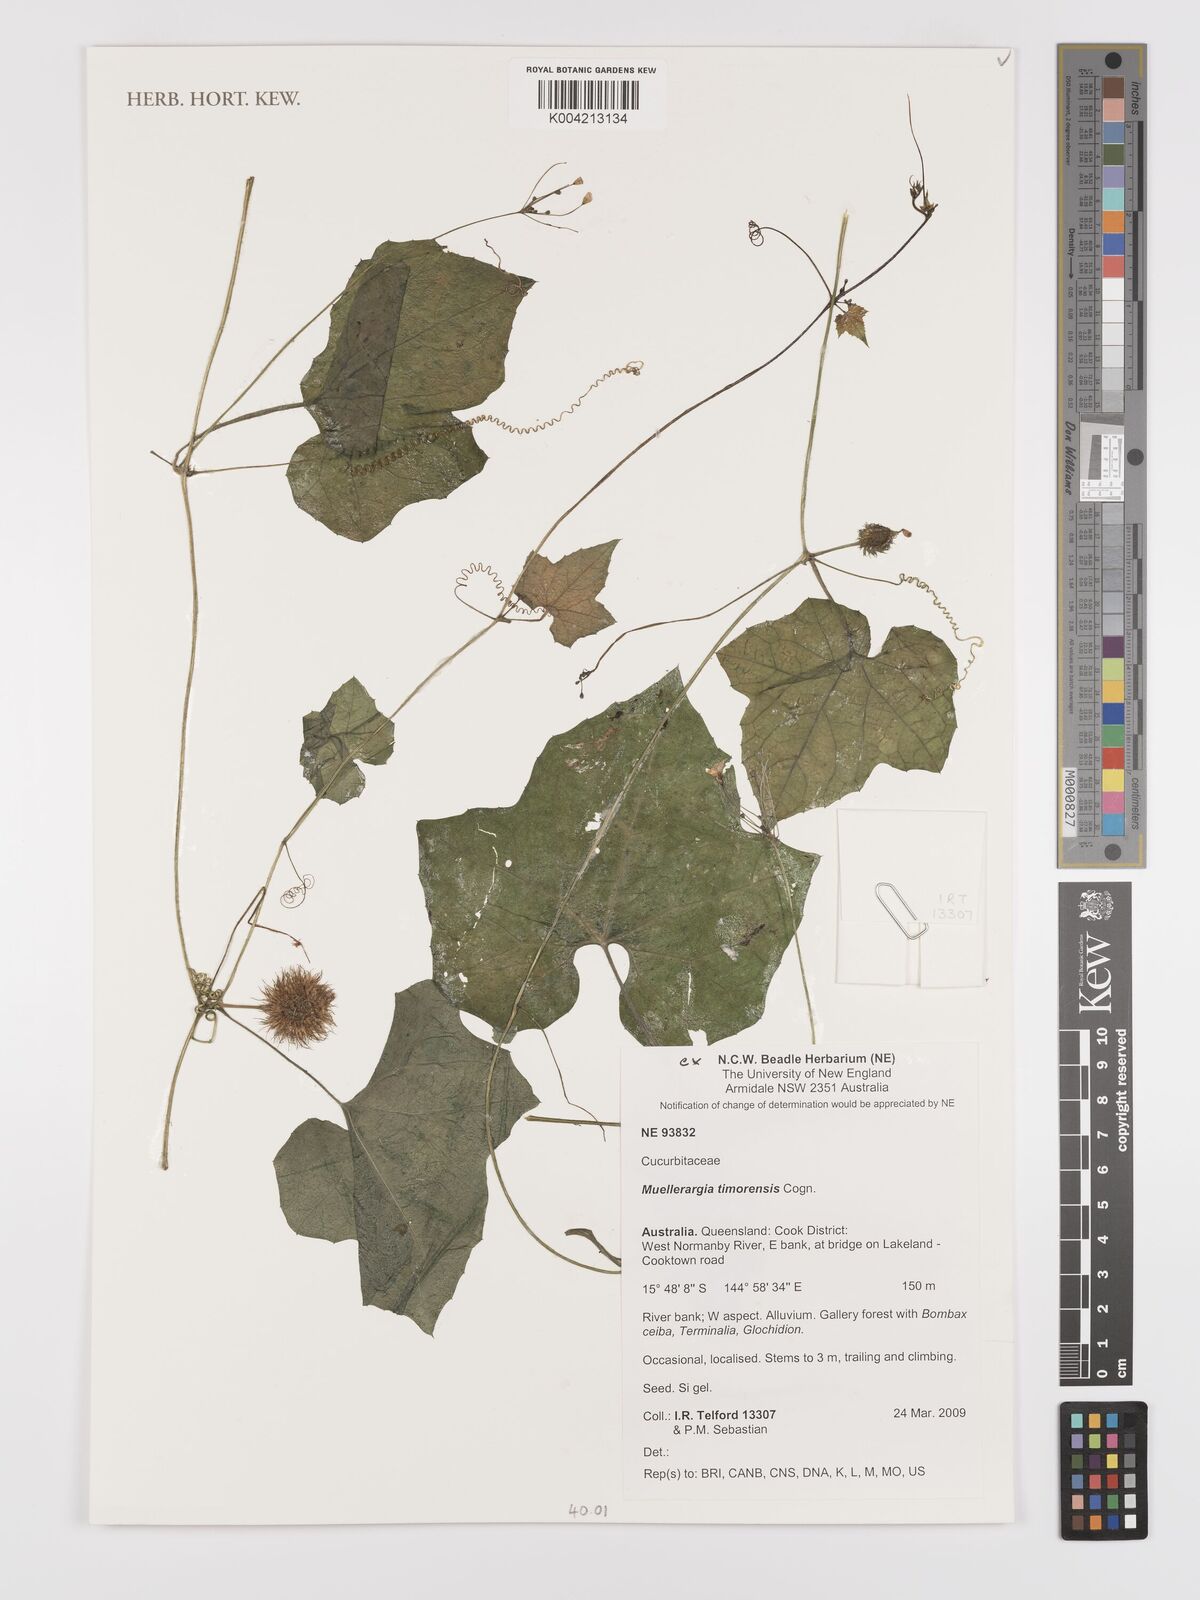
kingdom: Plantae
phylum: Tracheophyta
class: Magnoliopsida
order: Cucurbitales
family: Cucurbitaceae
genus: Muellerargia
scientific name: Muellerargia timorensis
